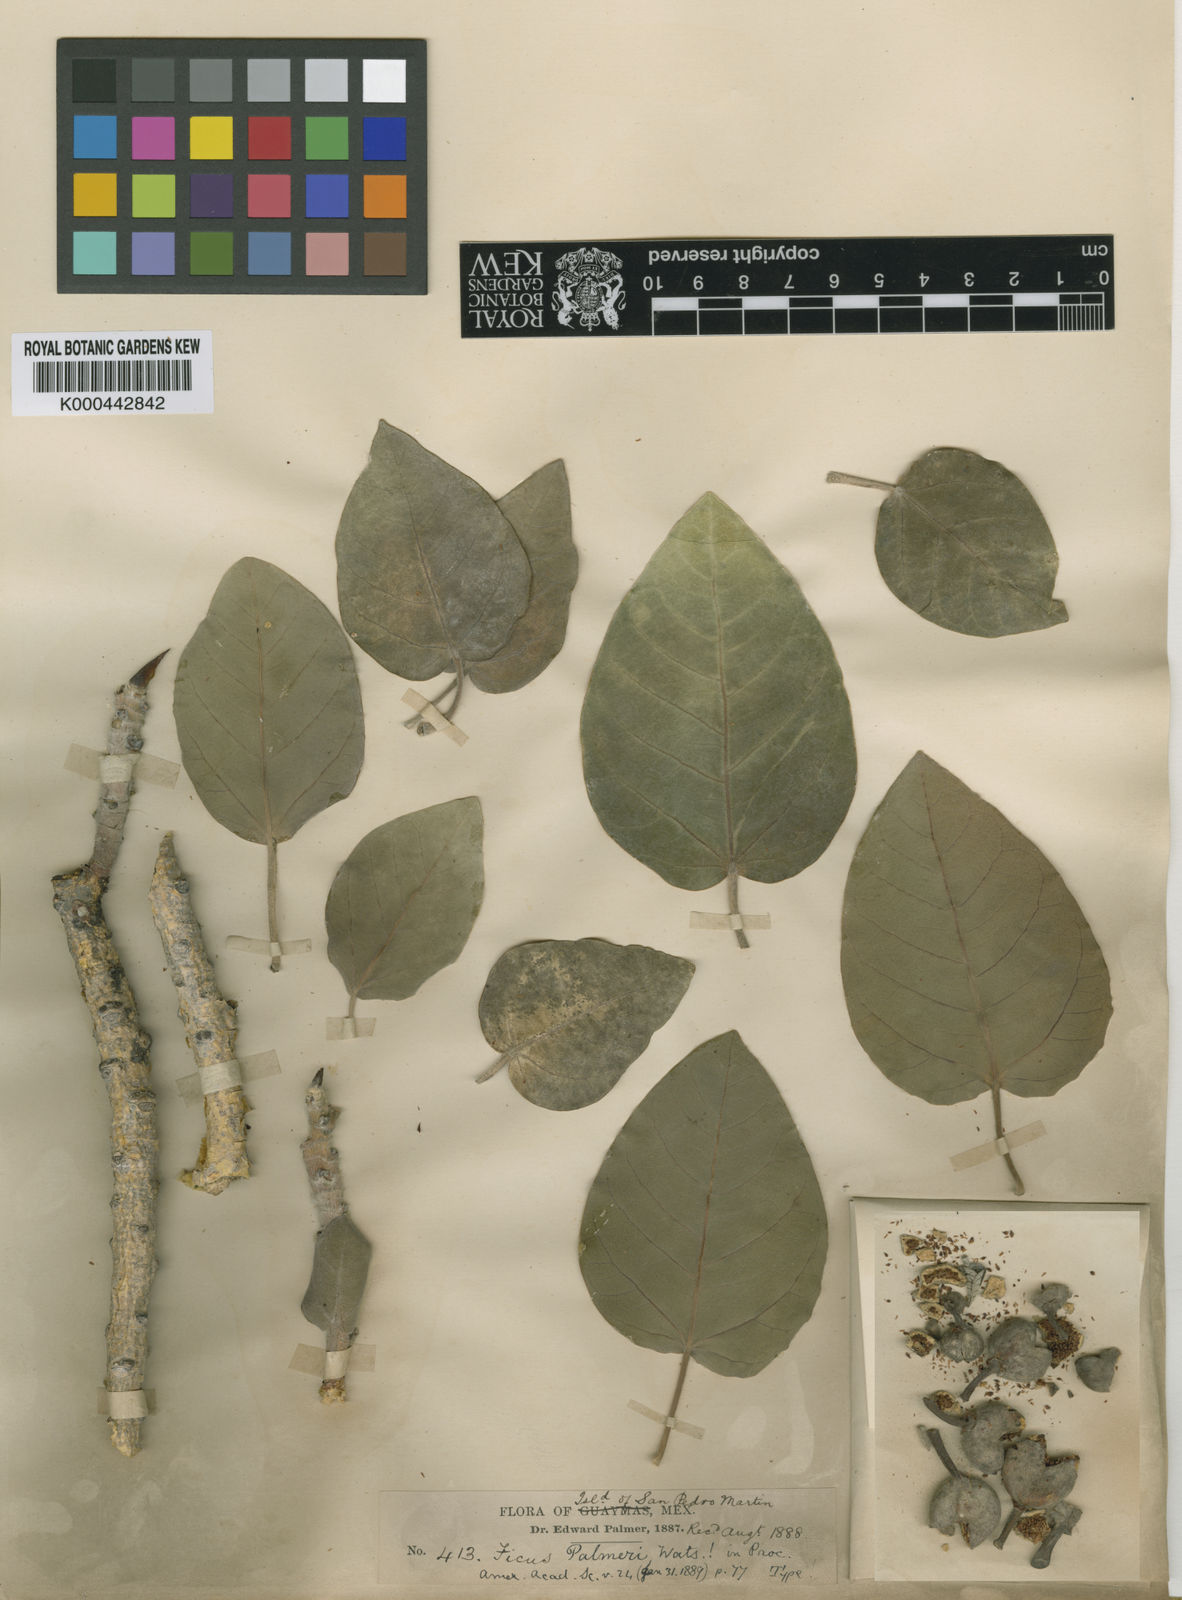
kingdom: Plantae
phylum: Tracheophyta
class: Magnoliopsida
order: Rosales
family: Moraceae
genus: Ficus
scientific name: Ficus petiolaris
